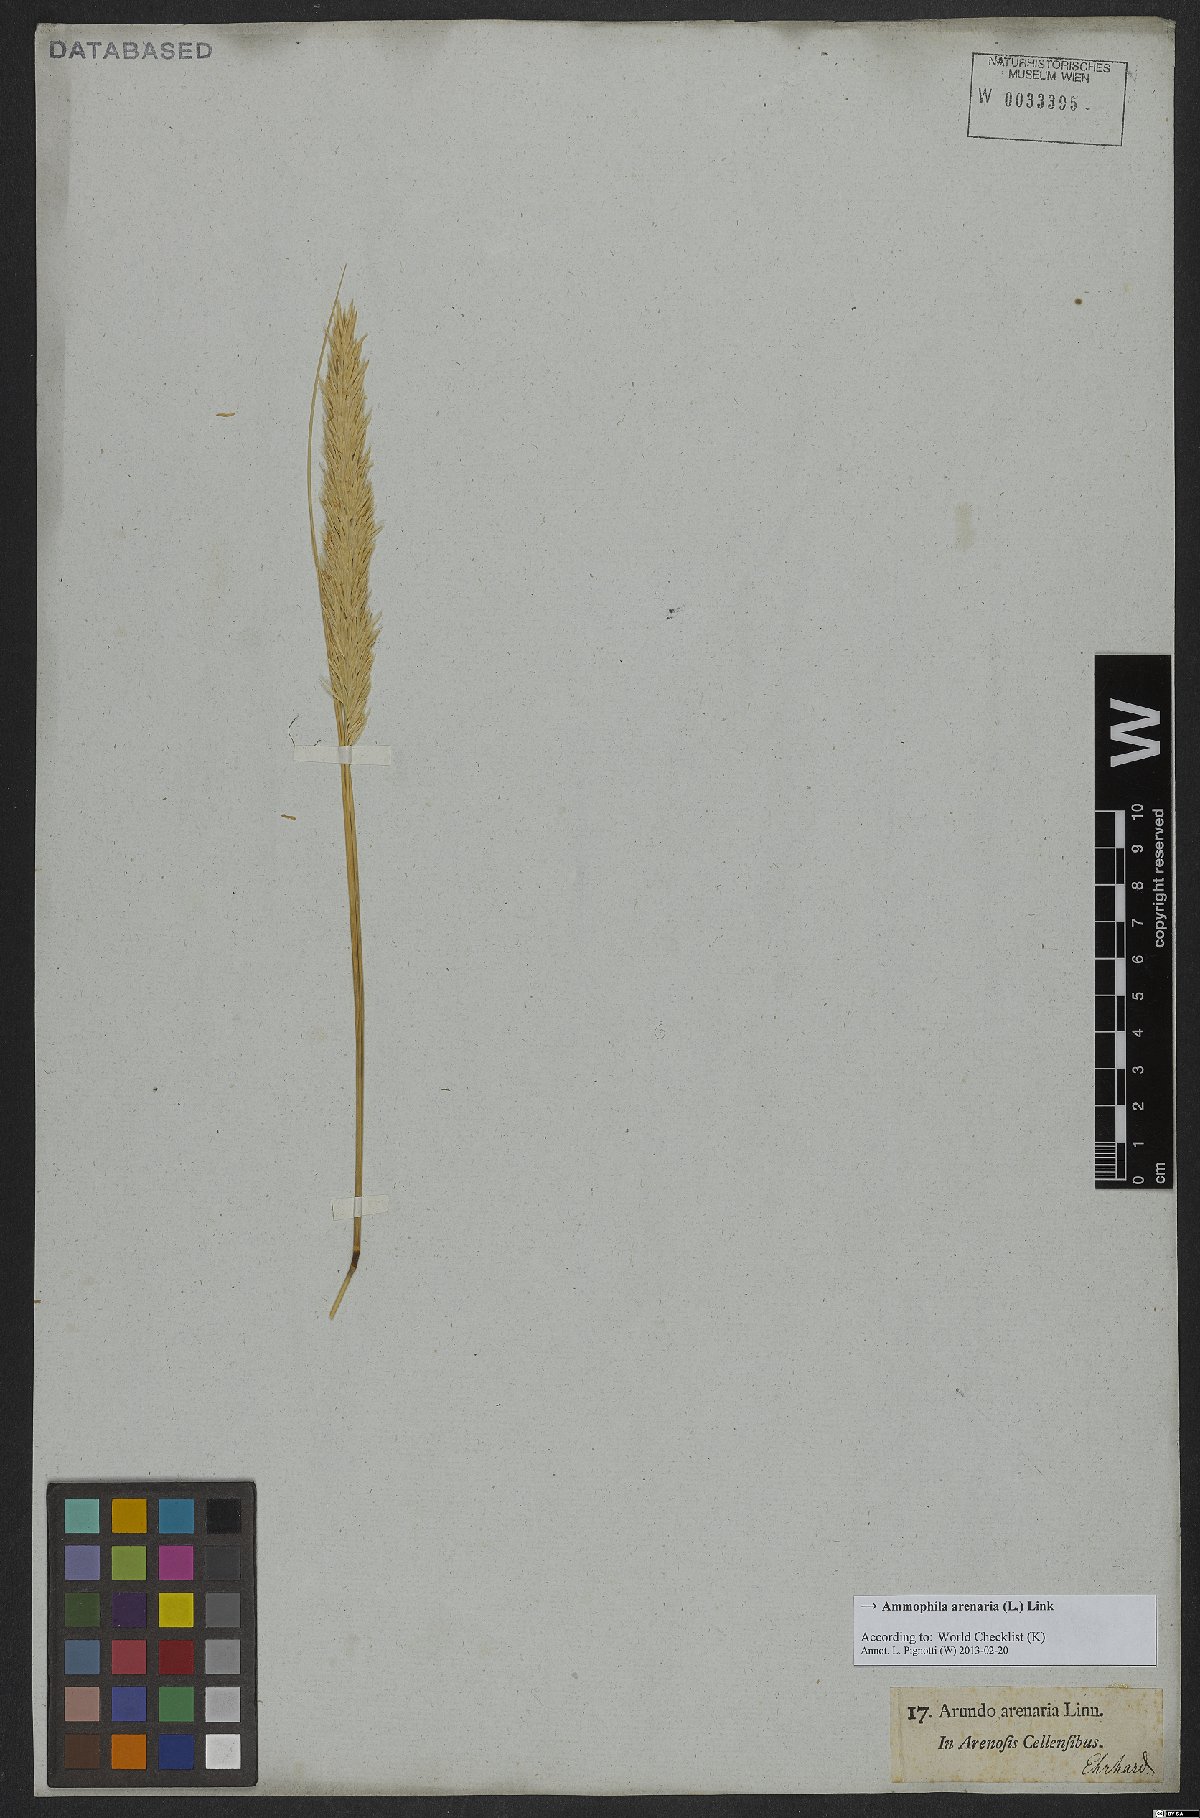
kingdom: Plantae
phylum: Tracheophyta
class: Liliopsida
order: Poales
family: Poaceae
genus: Calamagrostis
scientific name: Calamagrostis arenaria
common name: European beachgrass
